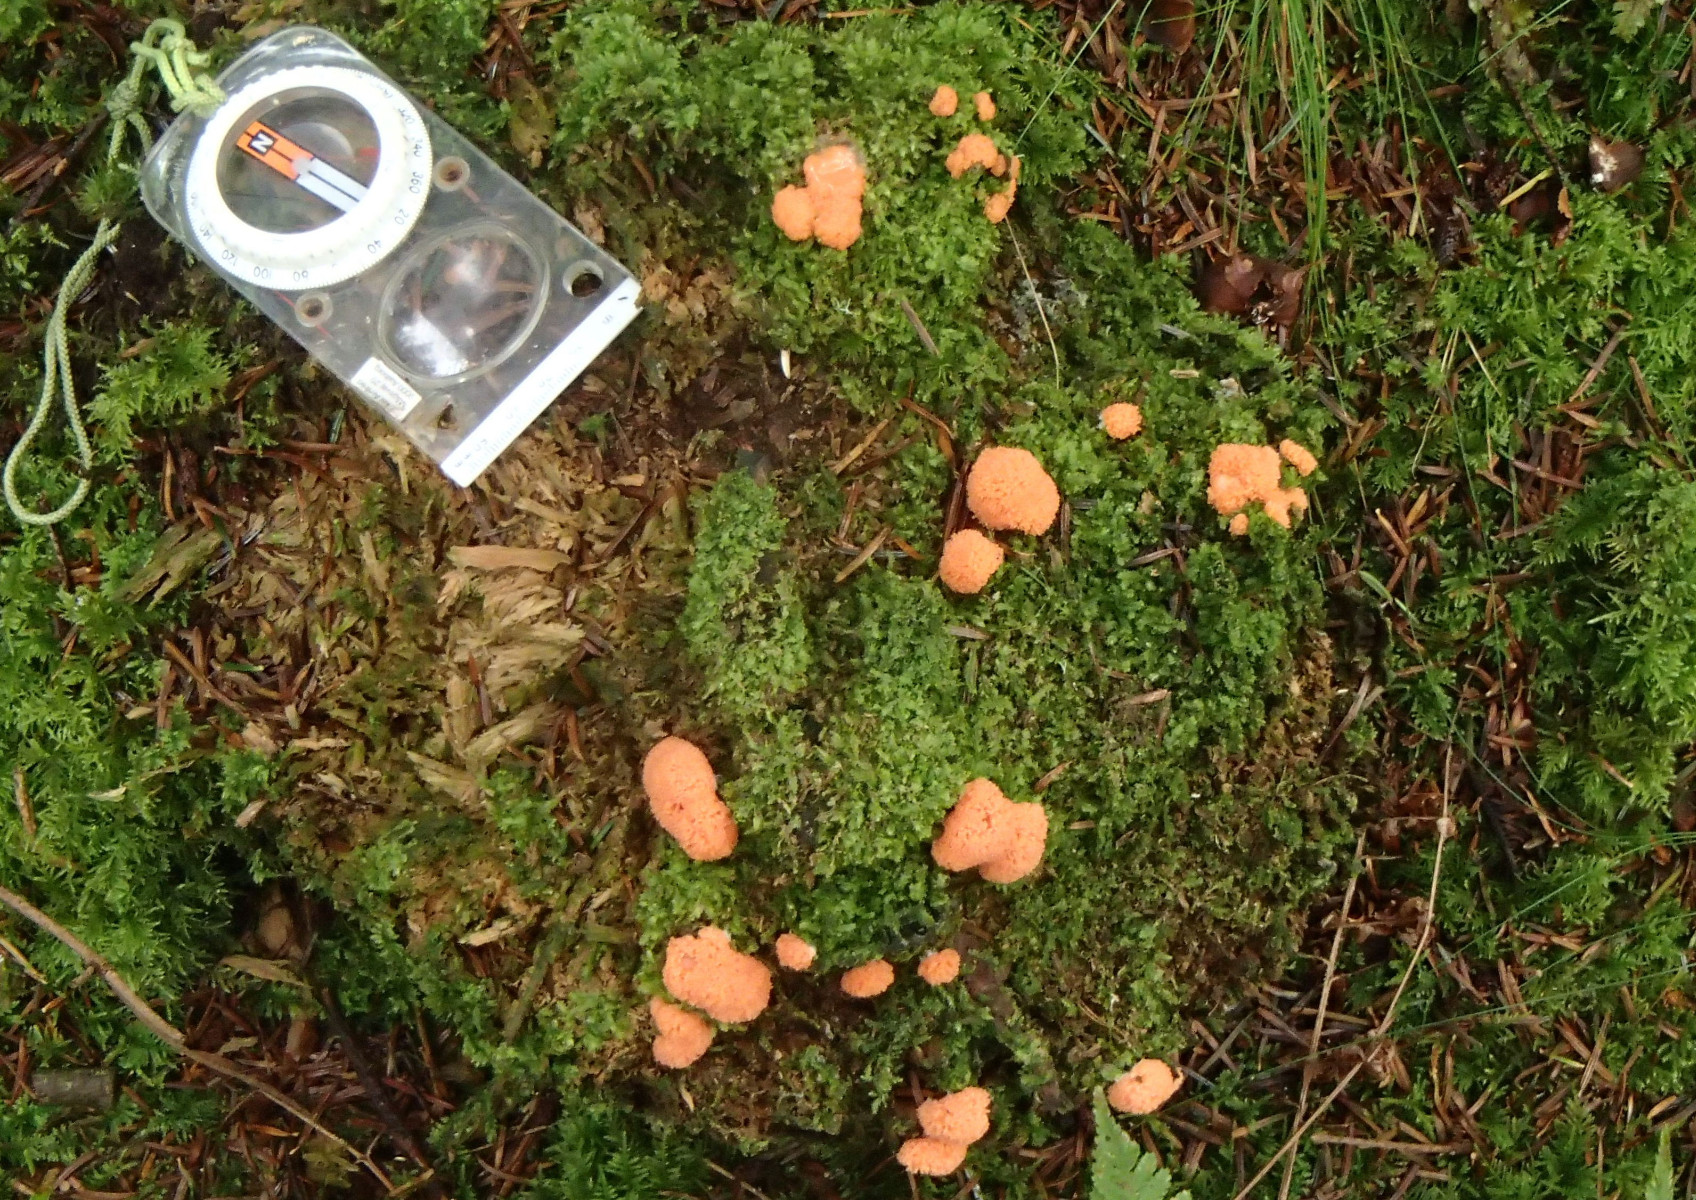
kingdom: Protozoa
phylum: Mycetozoa
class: Myxomycetes
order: Cribrariales
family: Tubiferaceae
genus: Tubifera
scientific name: Tubifera ferruginosa
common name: kanel-støvrør
